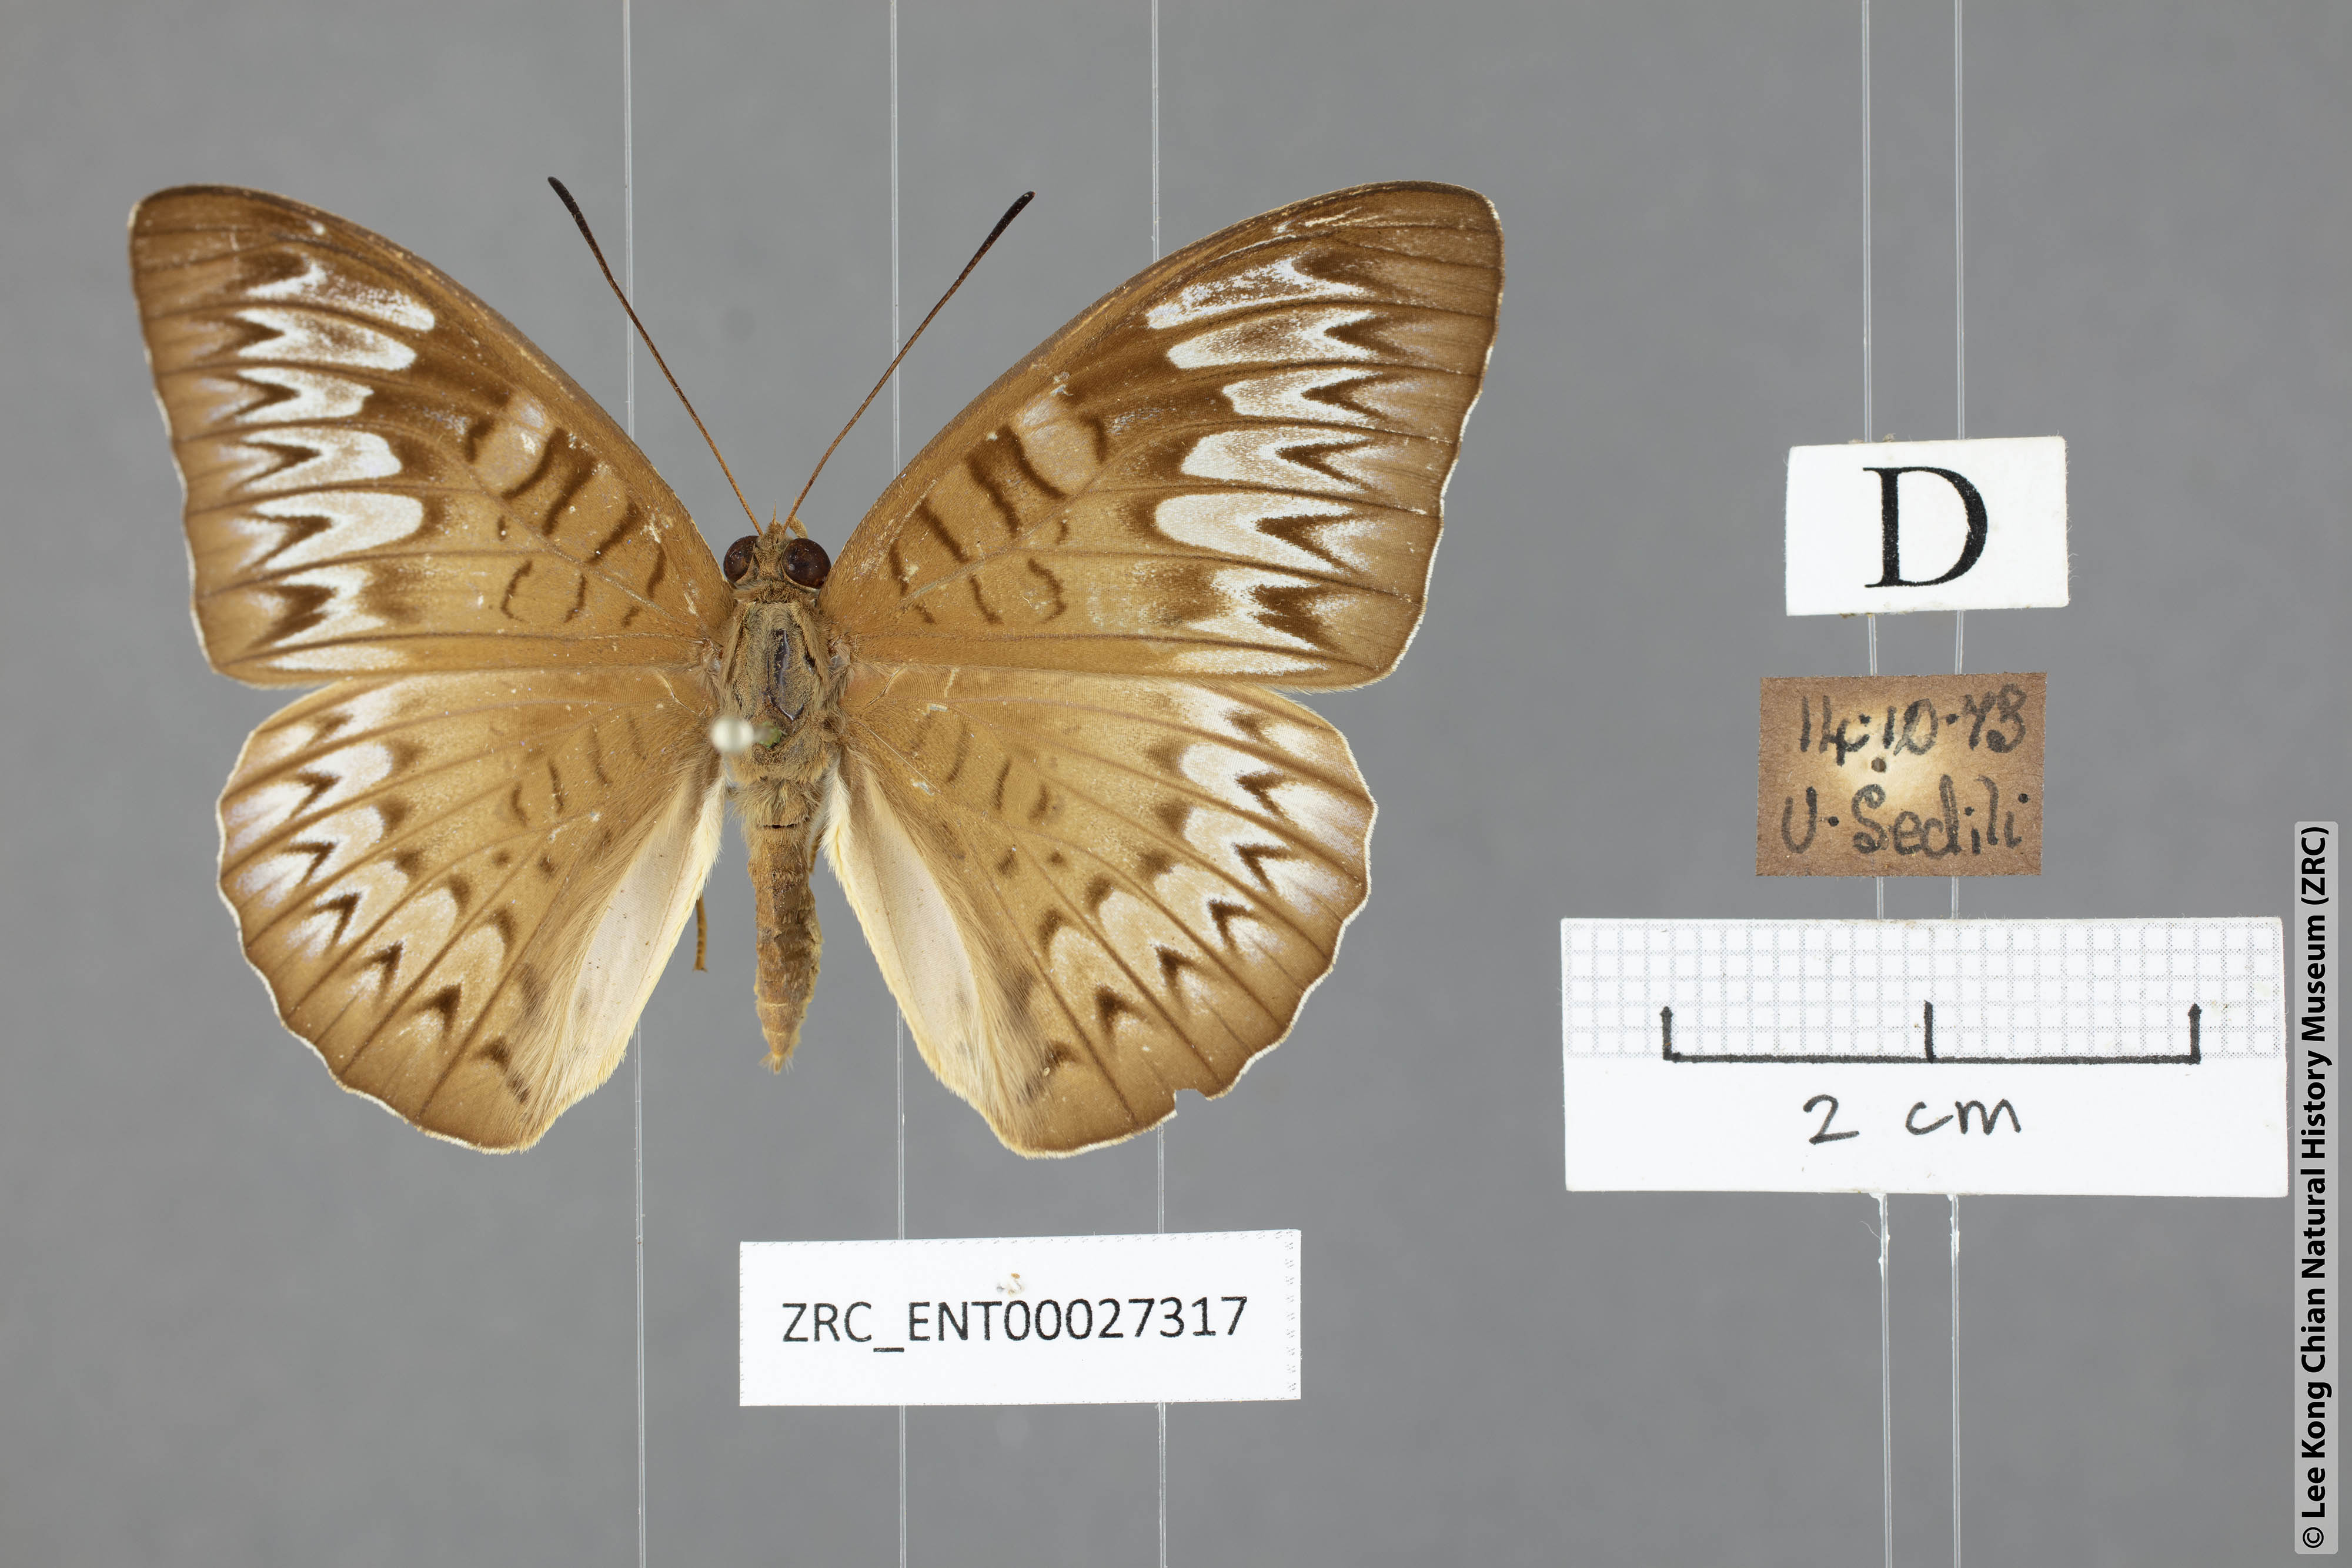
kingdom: Animalia
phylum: Arthropoda
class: Insecta
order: Lepidoptera
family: Nymphalidae
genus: Tanaecia
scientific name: Tanaecia pelea
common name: Malay viscount
